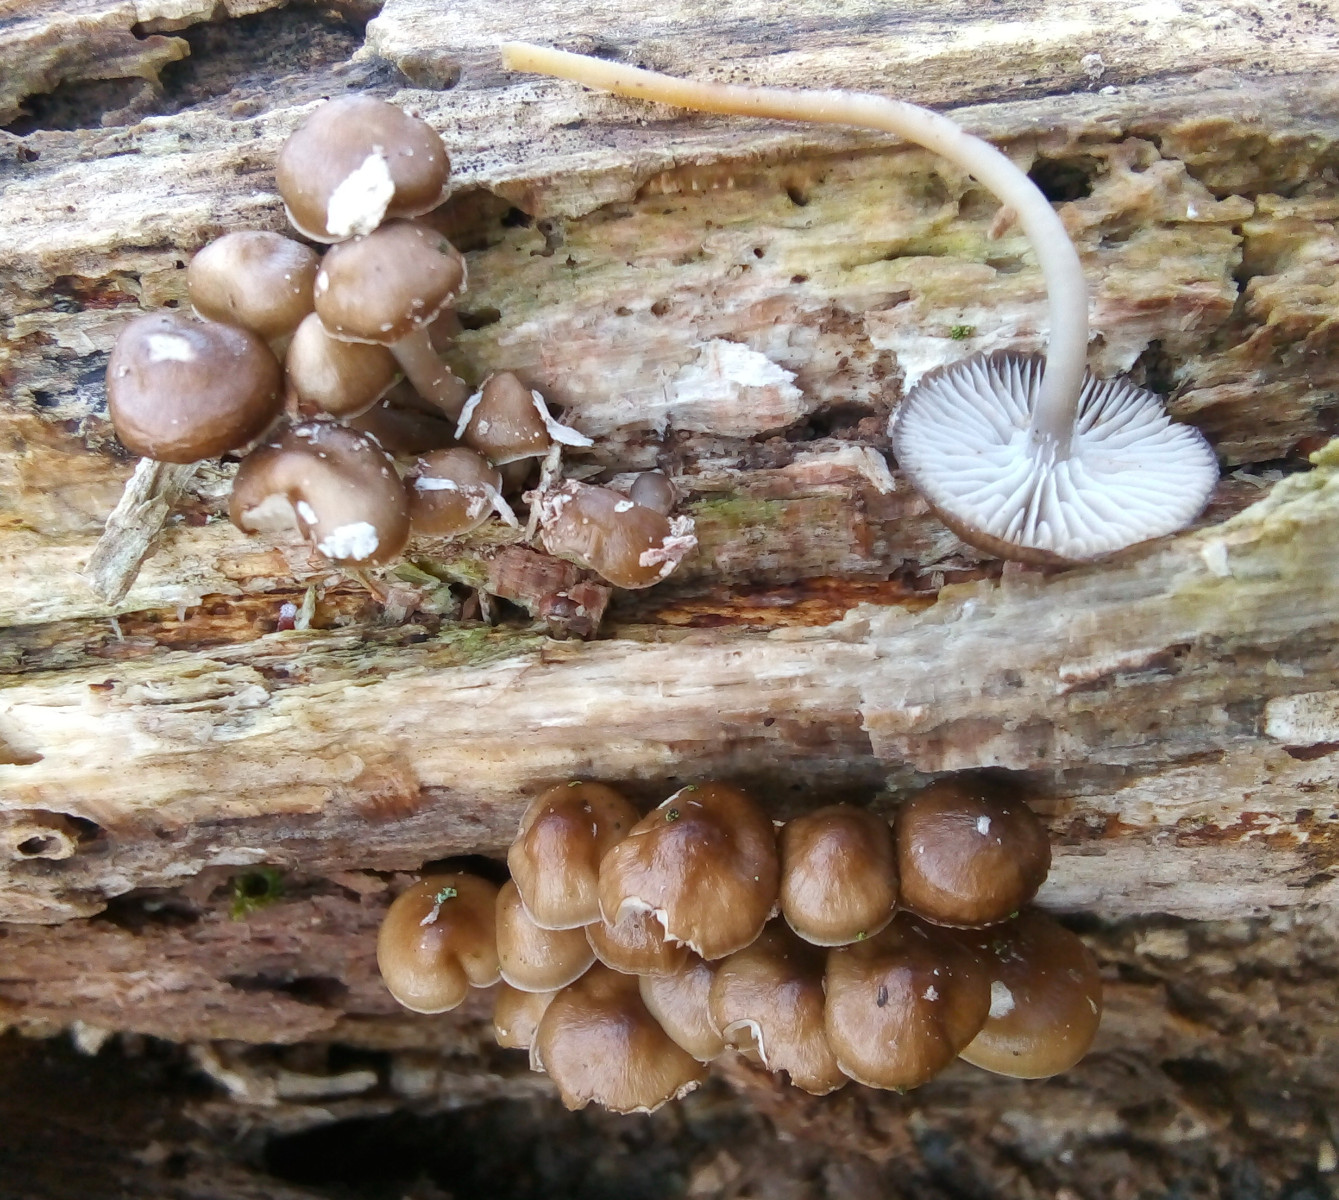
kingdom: Fungi
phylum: Basidiomycota
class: Agaricomycetes
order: Agaricales
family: Mycenaceae
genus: Mycena
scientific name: Mycena tintinnabulum
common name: vinter-huesvamp
